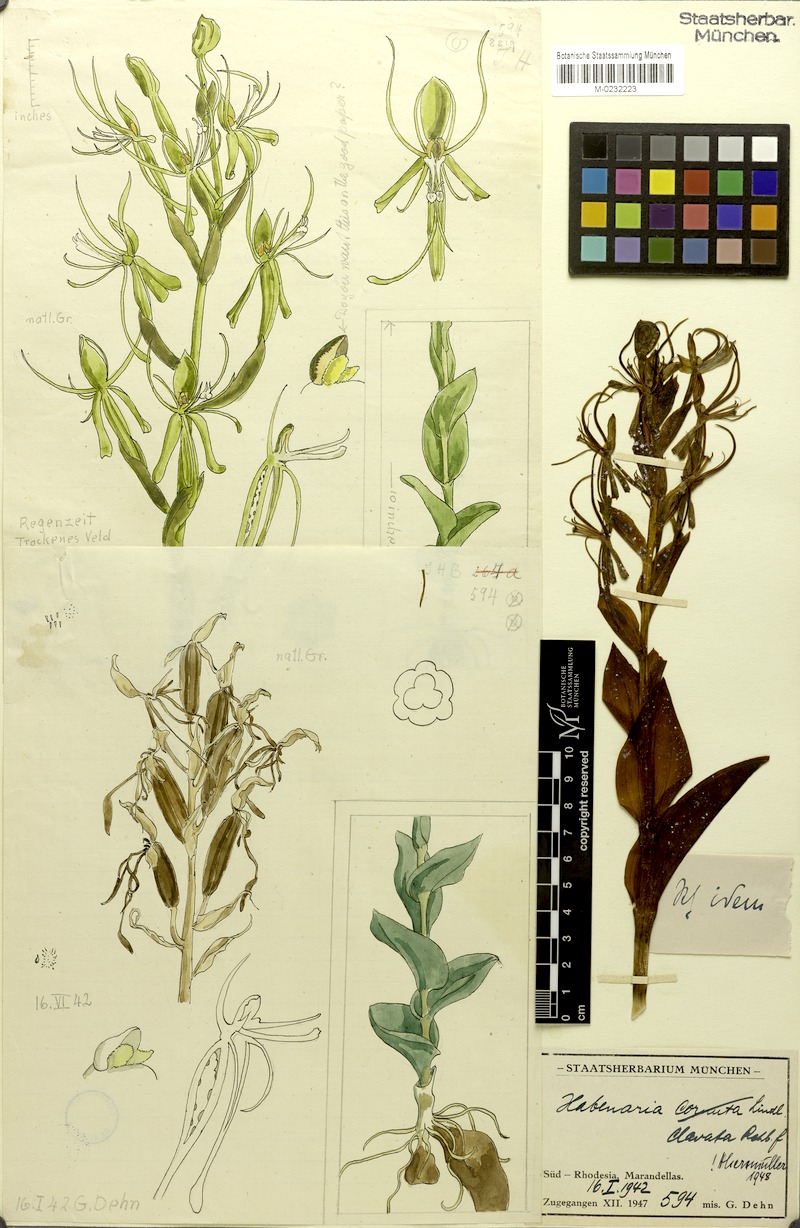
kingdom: Plantae
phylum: Tracheophyta
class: Liliopsida
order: Asparagales
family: Orchidaceae
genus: Habenaria
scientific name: Habenaria clavata
